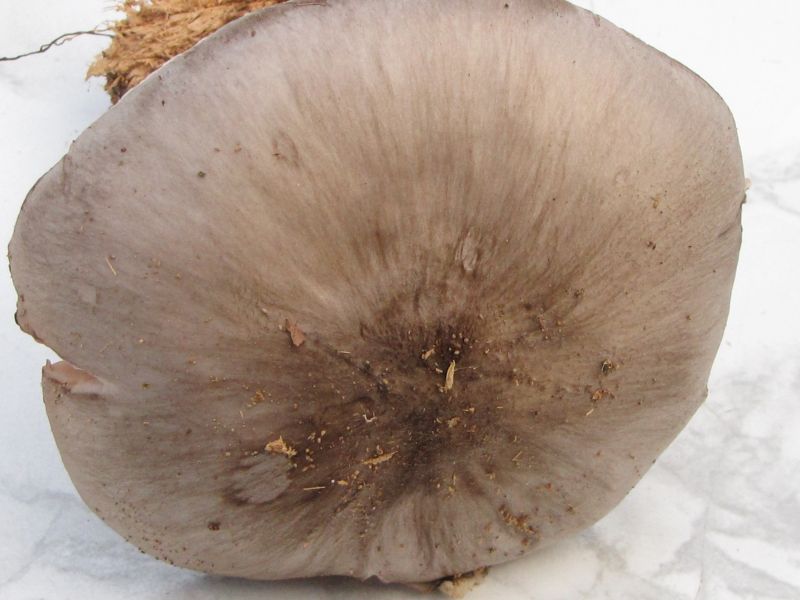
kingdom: Fungi
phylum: Basidiomycota
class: Agaricomycetes
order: Agaricales
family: Pluteaceae
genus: Pluteus
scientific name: Pluteus cervinus
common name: sodfarvet skærmhat
